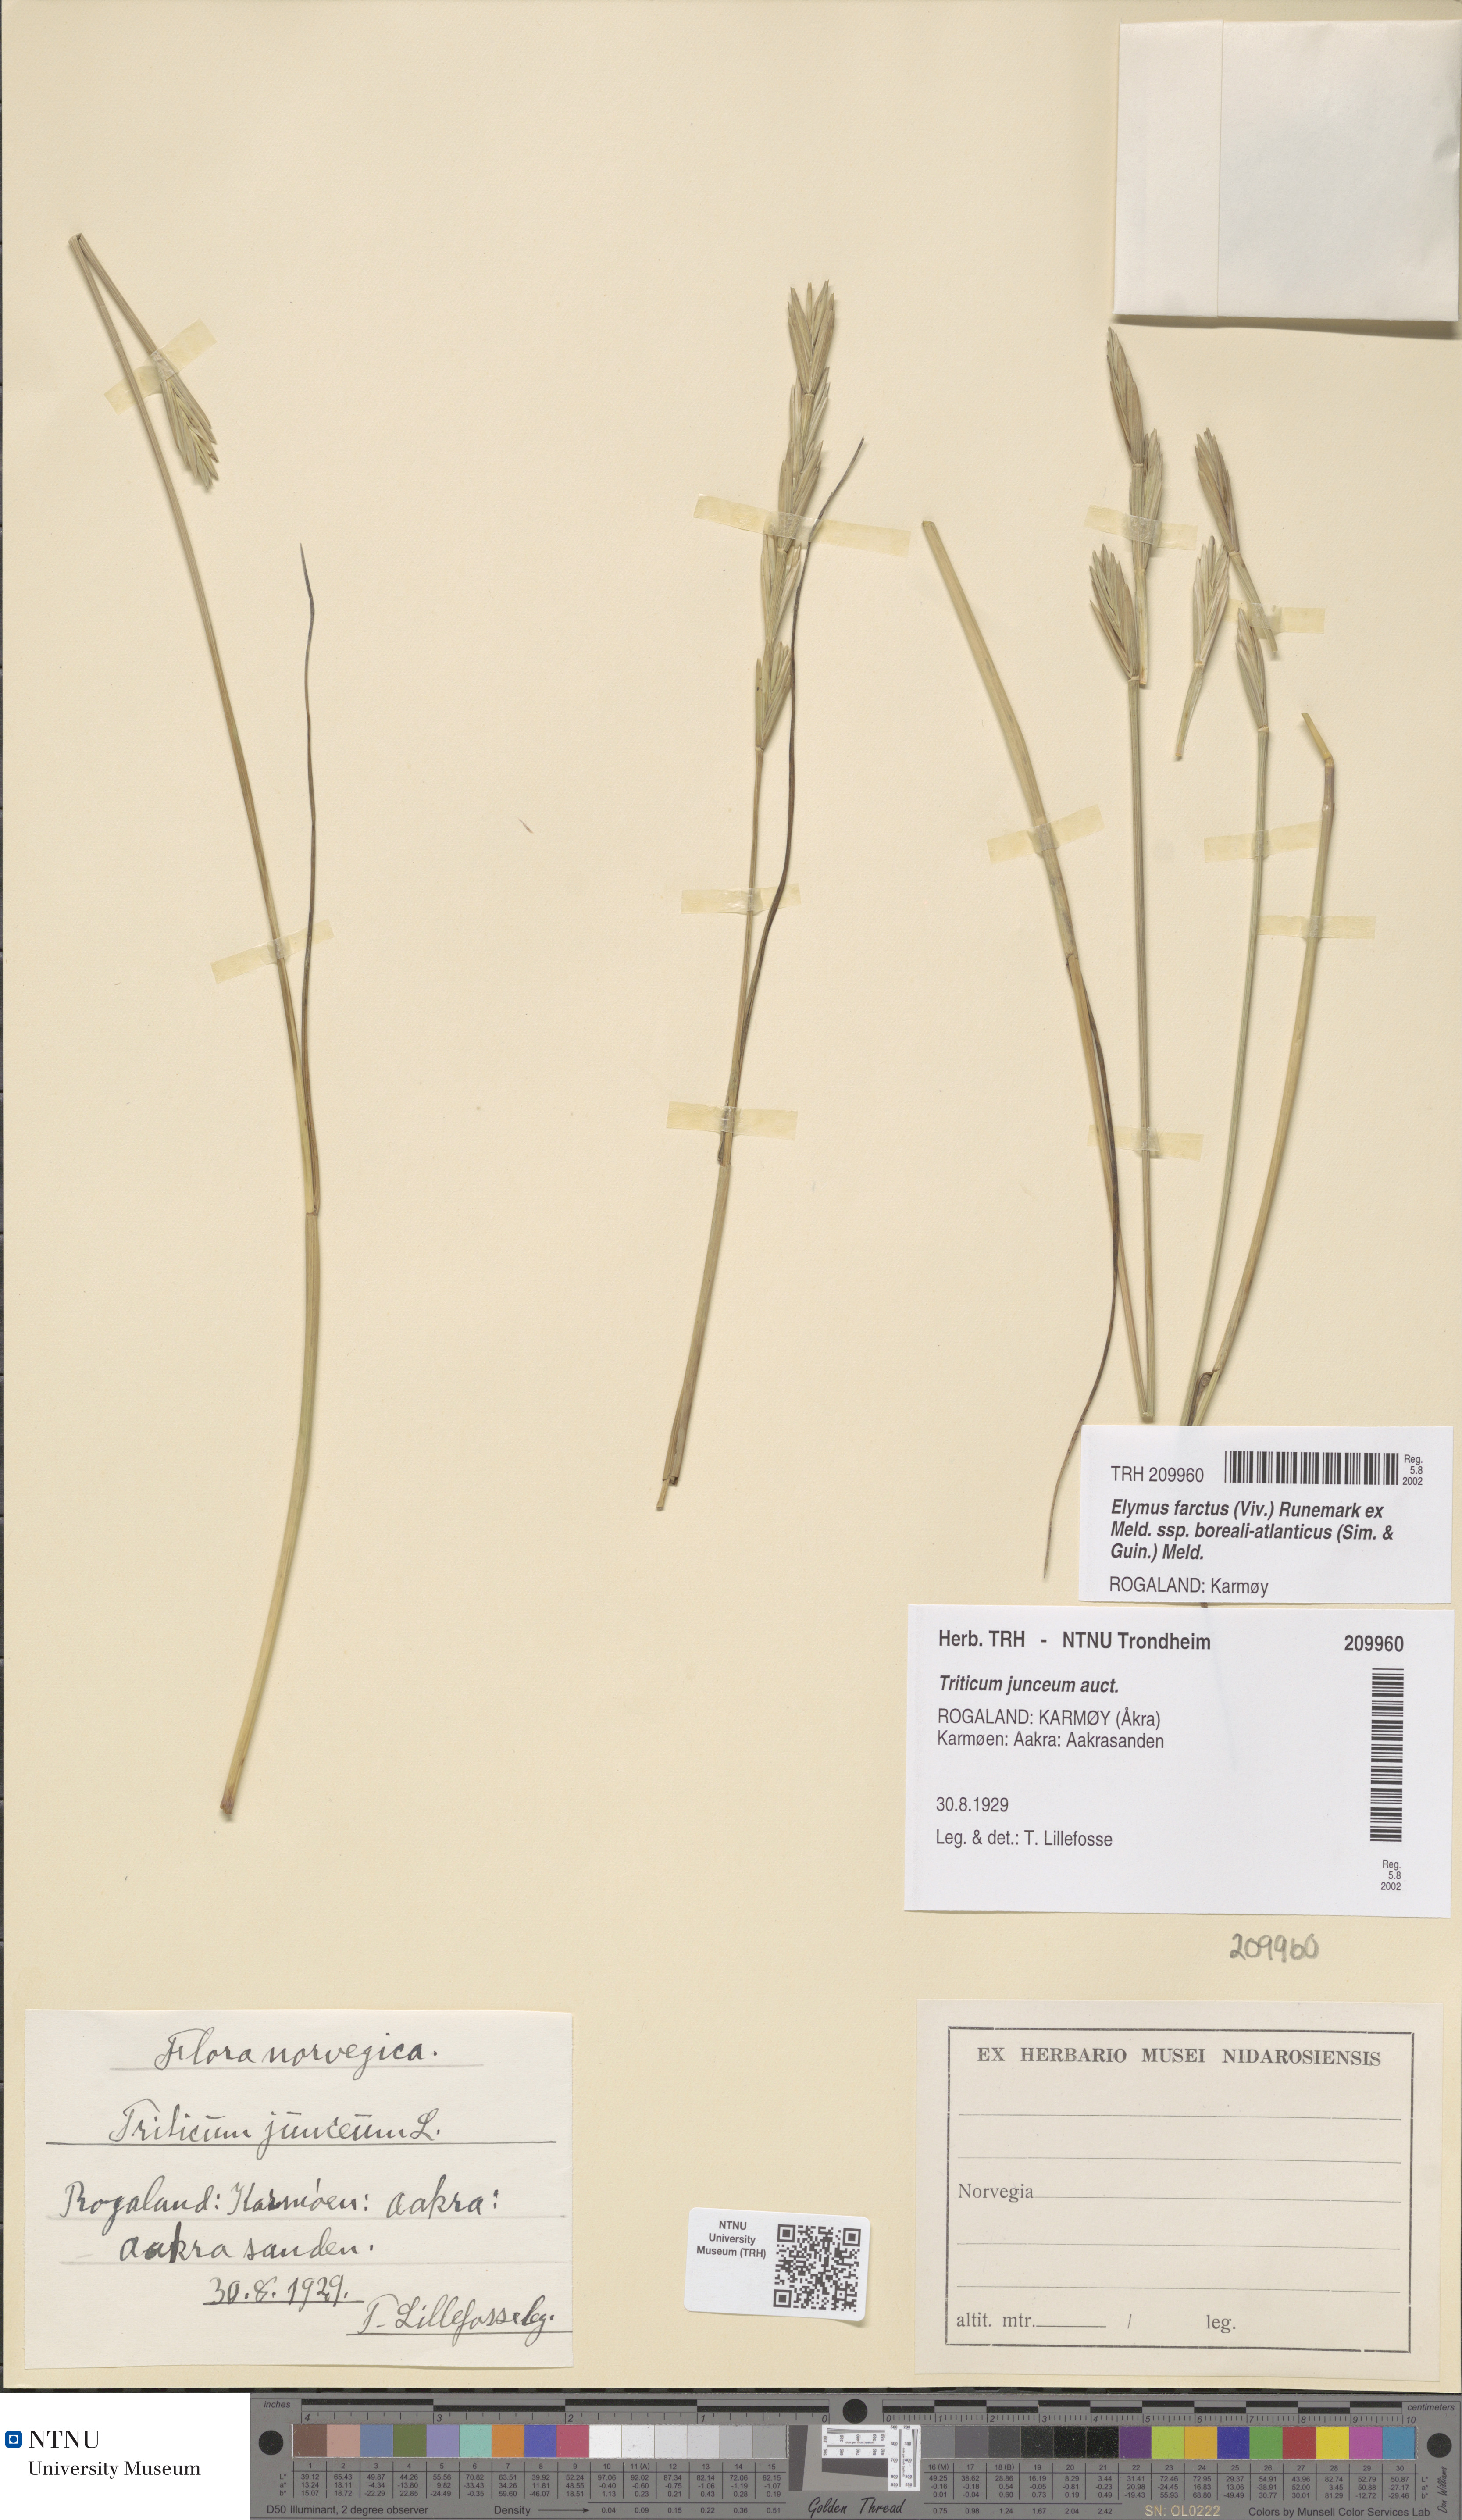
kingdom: Plantae
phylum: Tracheophyta
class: Liliopsida
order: Poales
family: Poaceae
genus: Thinopyrum
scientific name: Thinopyrum junceiforme
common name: Sea couch
